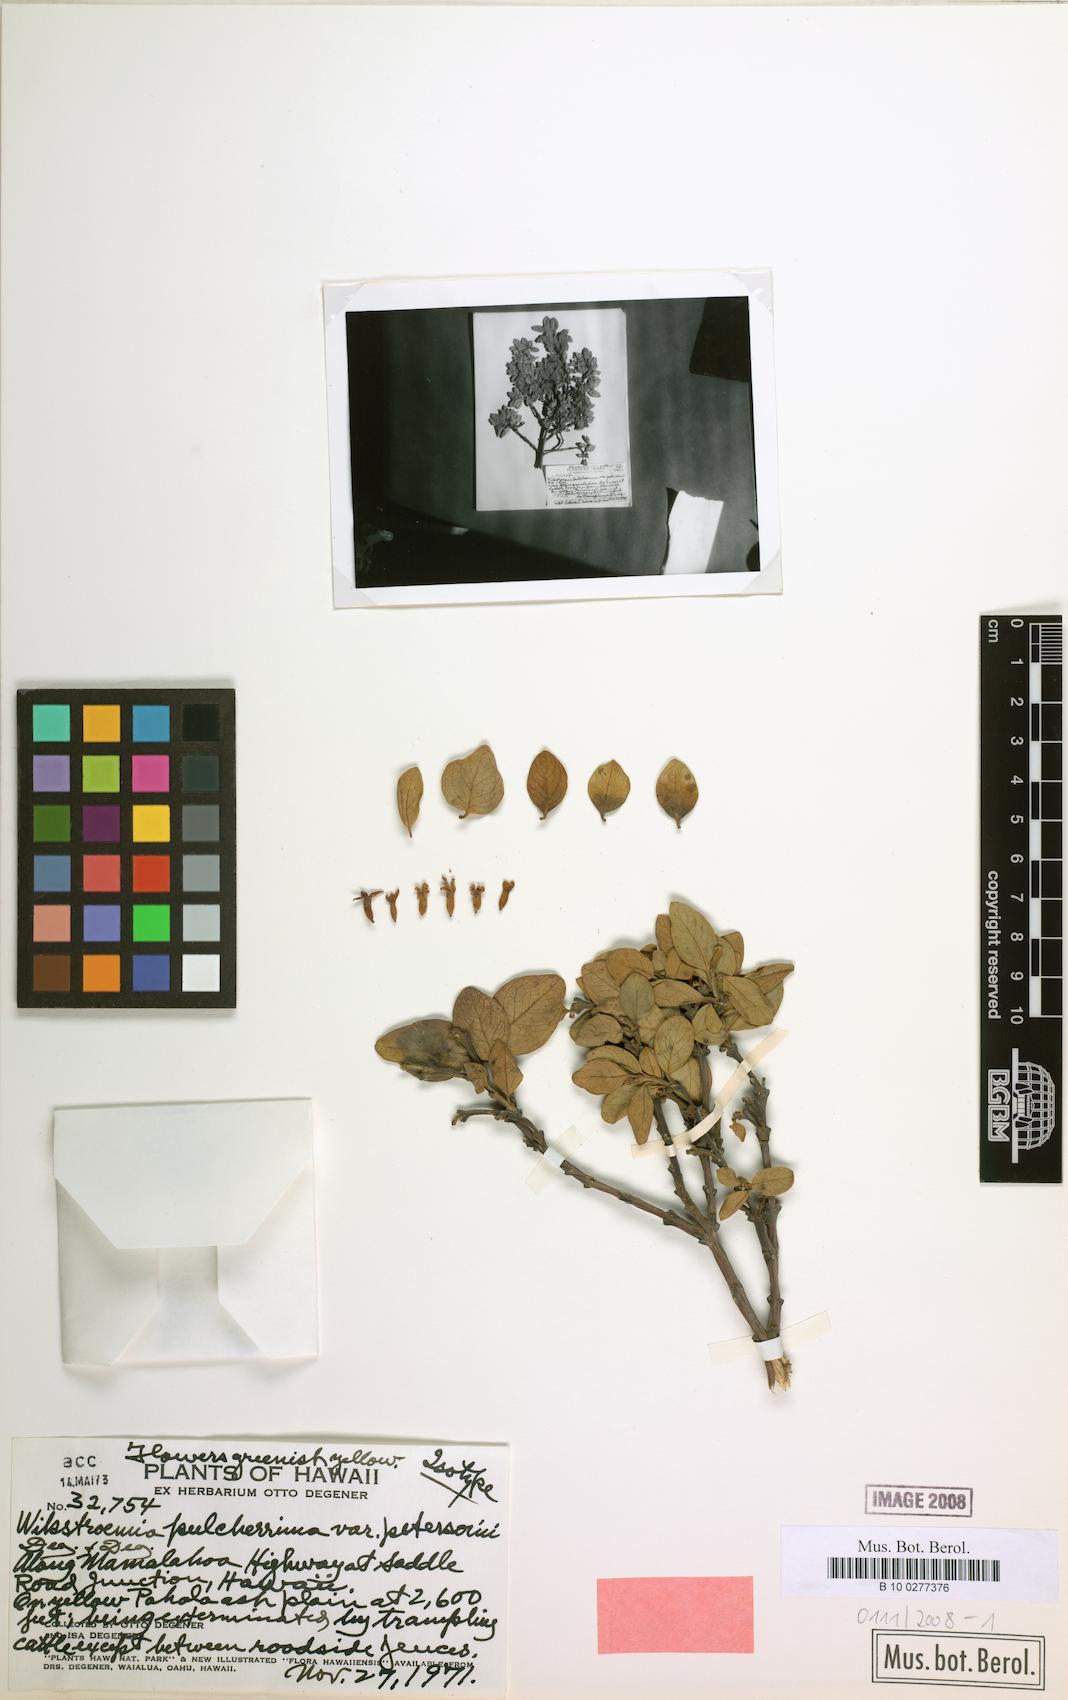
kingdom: Plantae
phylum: Tracheophyta
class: Magnoliopsida
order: Malvales
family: Thymelaeaceae
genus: Wikstroemia
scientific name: Wikstroemia pulcherrima
